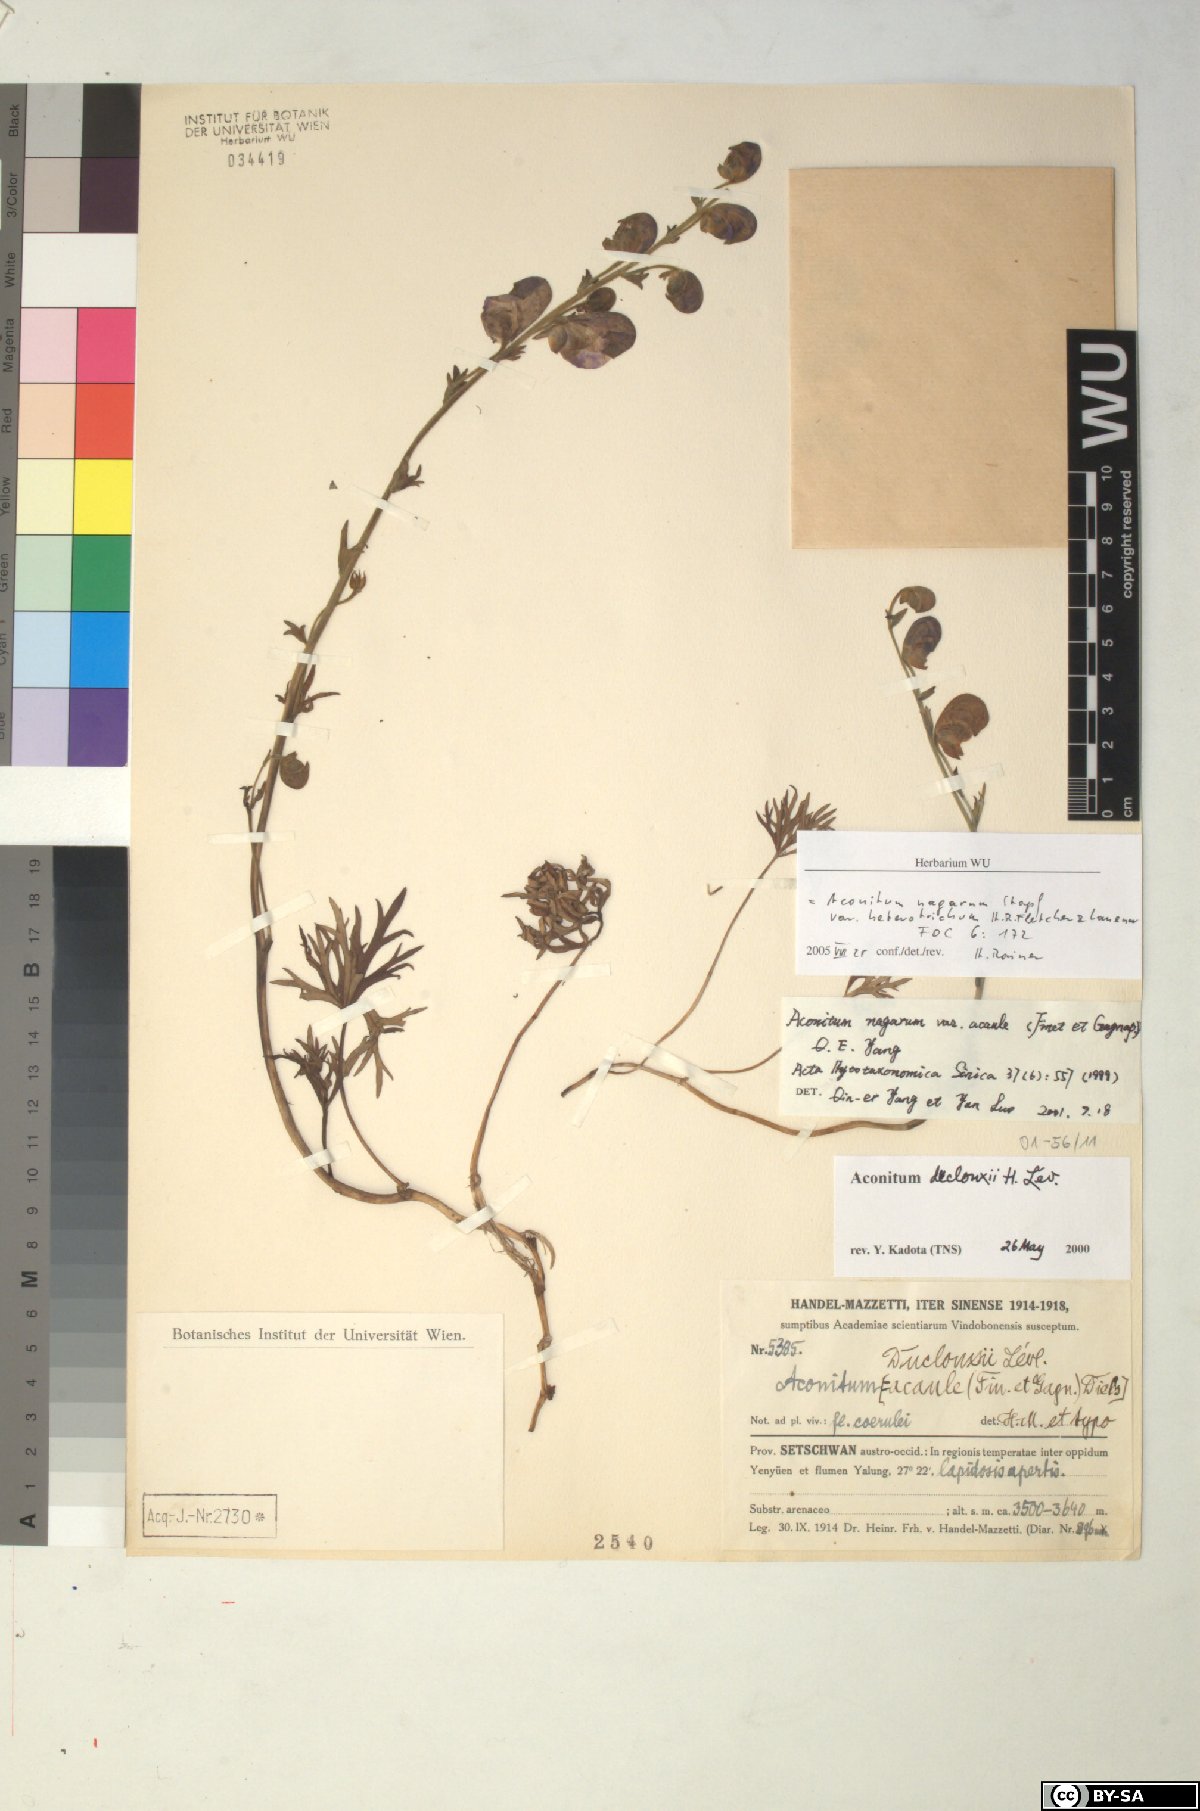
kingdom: Plantae
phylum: Tracheophyta
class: Magnoliopsida
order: Ranunculales
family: Ranunculaceae
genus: Aconitum
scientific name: Aconitum nagarum
